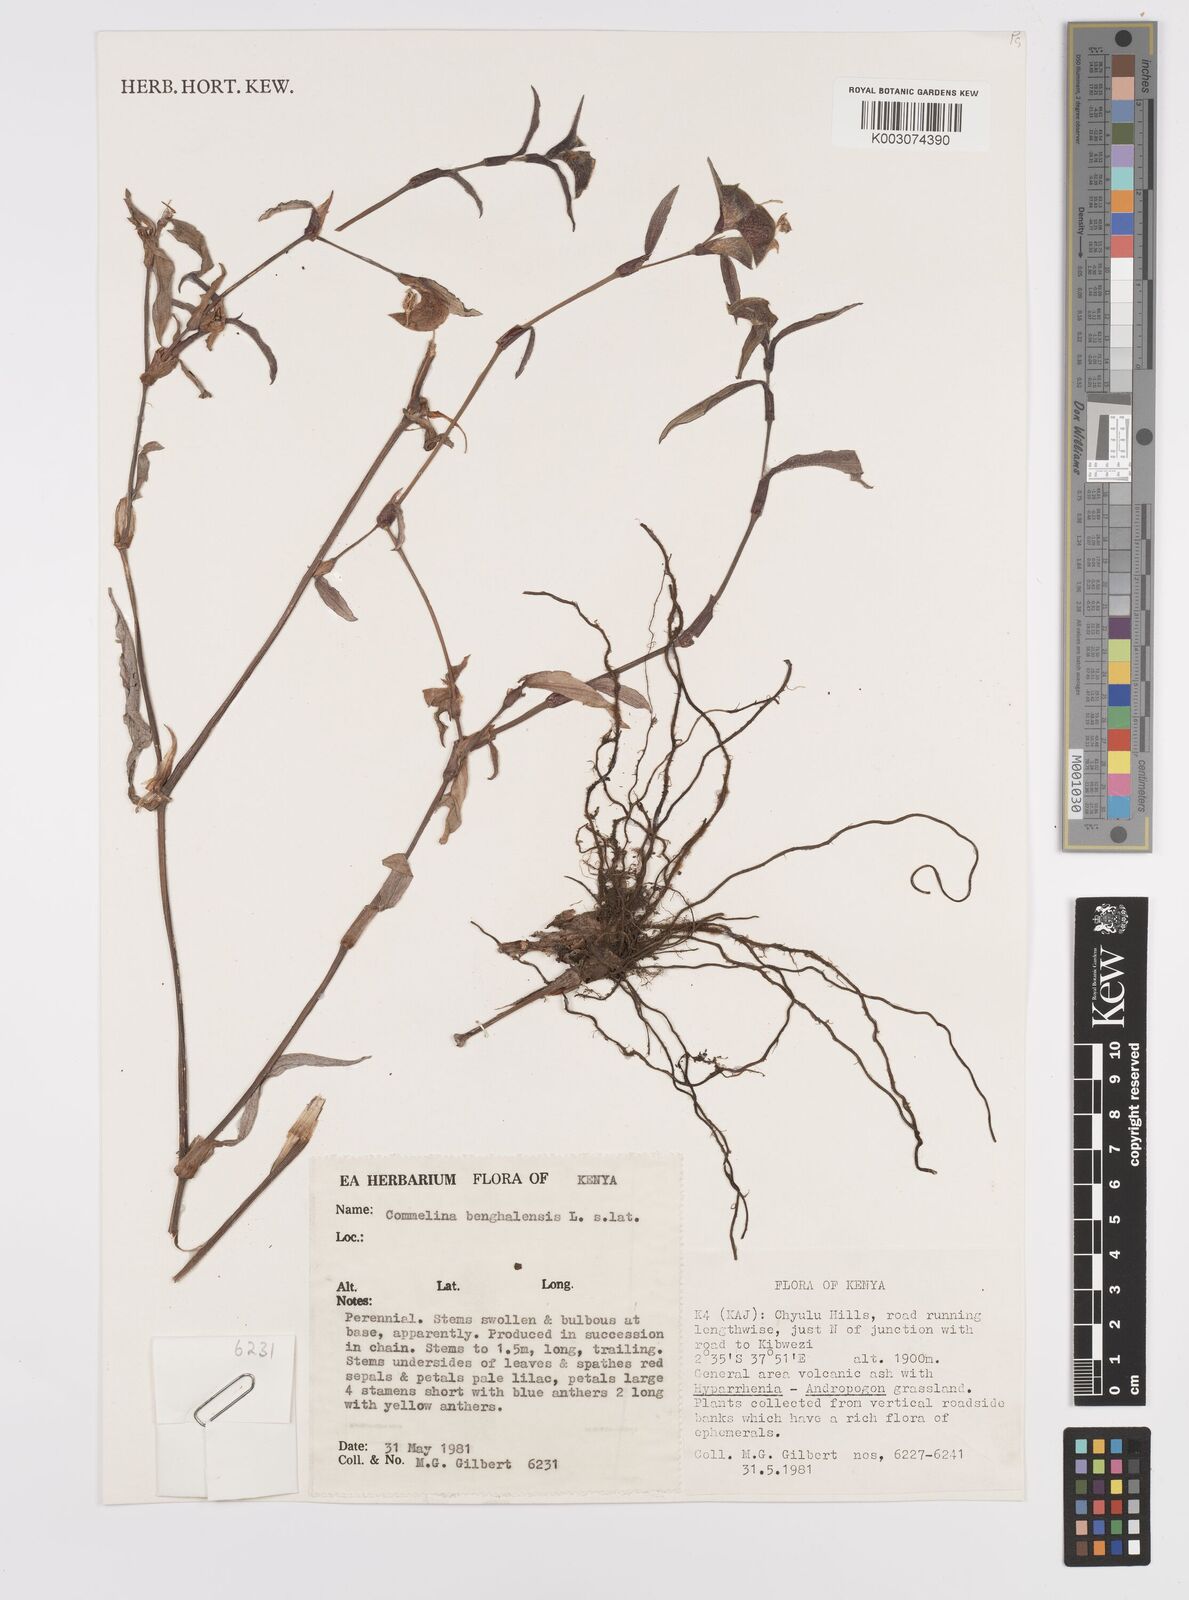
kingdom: Plantae
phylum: Tracheophyta
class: Liliopsida
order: Commelinales
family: Commelinaceae
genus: Commelina
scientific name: Commelina benghalensis
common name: Jio
